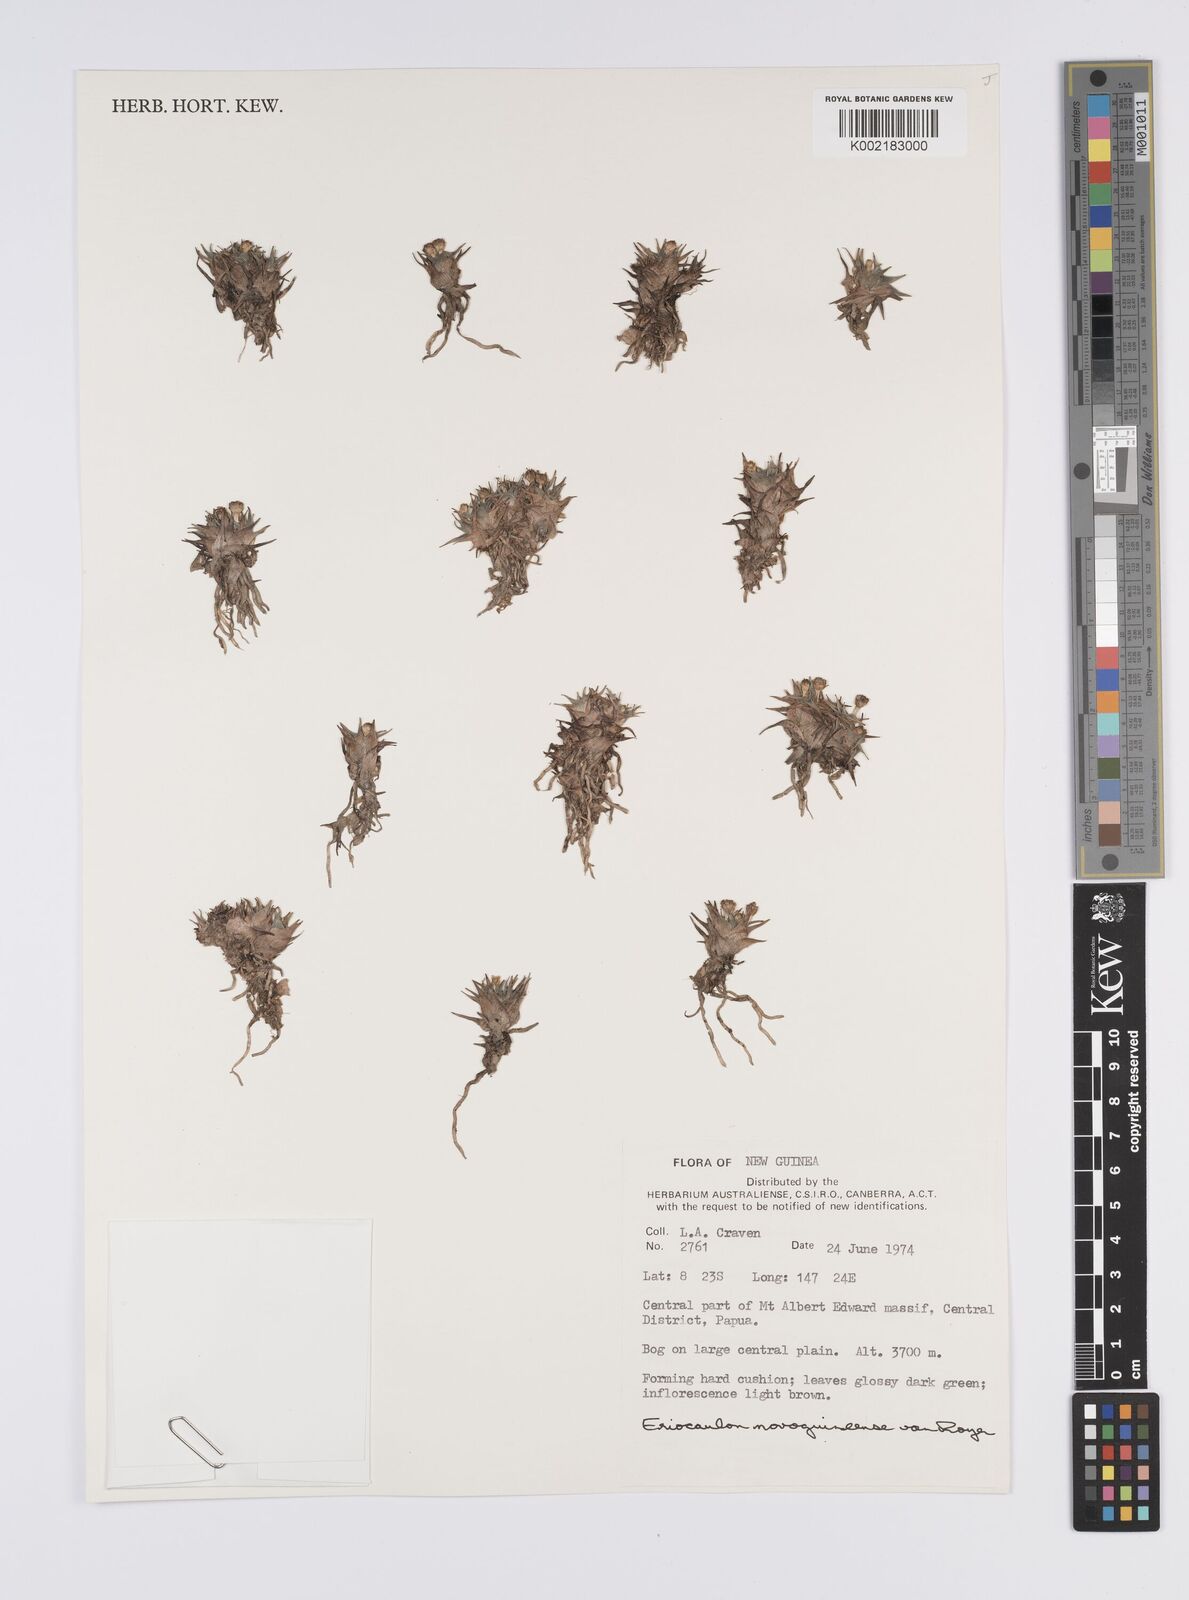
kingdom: Plantae
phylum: Tracheophyta
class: Liliopsida
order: Poales
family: Eriocaulaceae
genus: Eriocaulon
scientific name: Eriocaulon novoguineense
